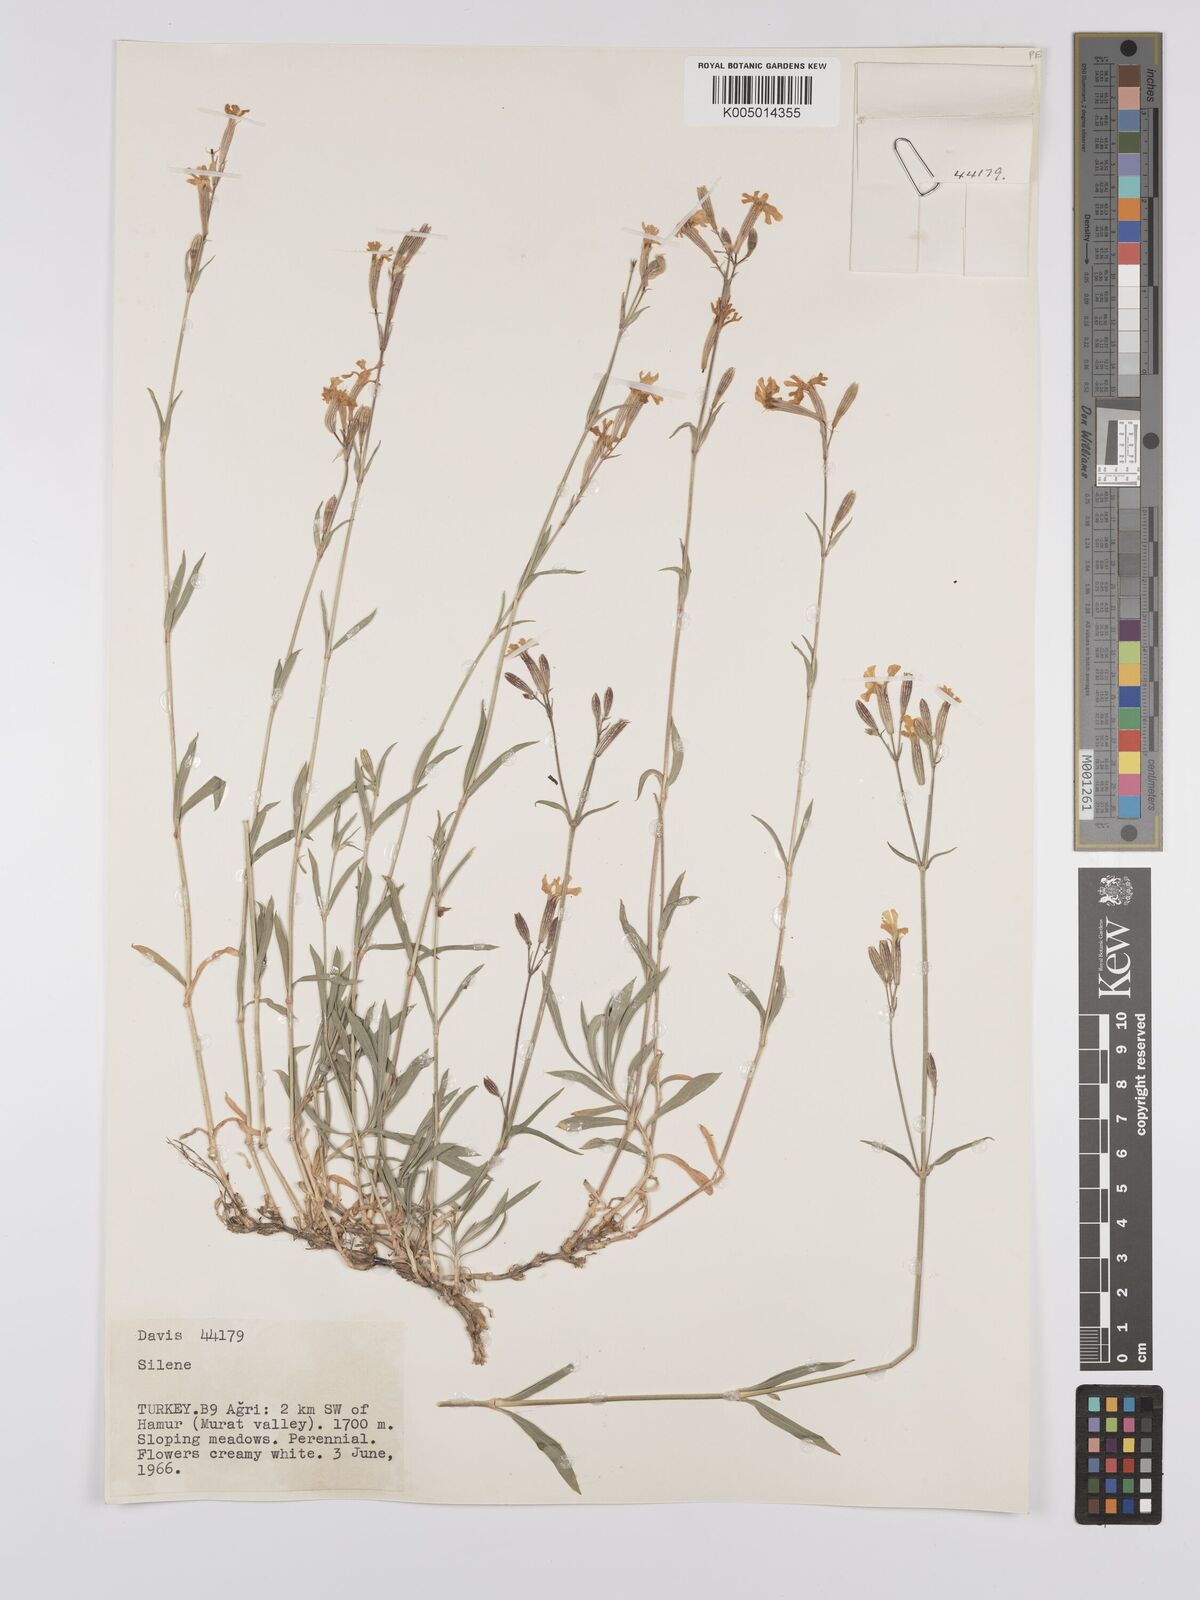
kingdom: Plantae
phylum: Tracheophyta
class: Magnoliopsida
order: Caryophyllales
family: Caryophyllaceae
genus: Silene
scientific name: Silene
